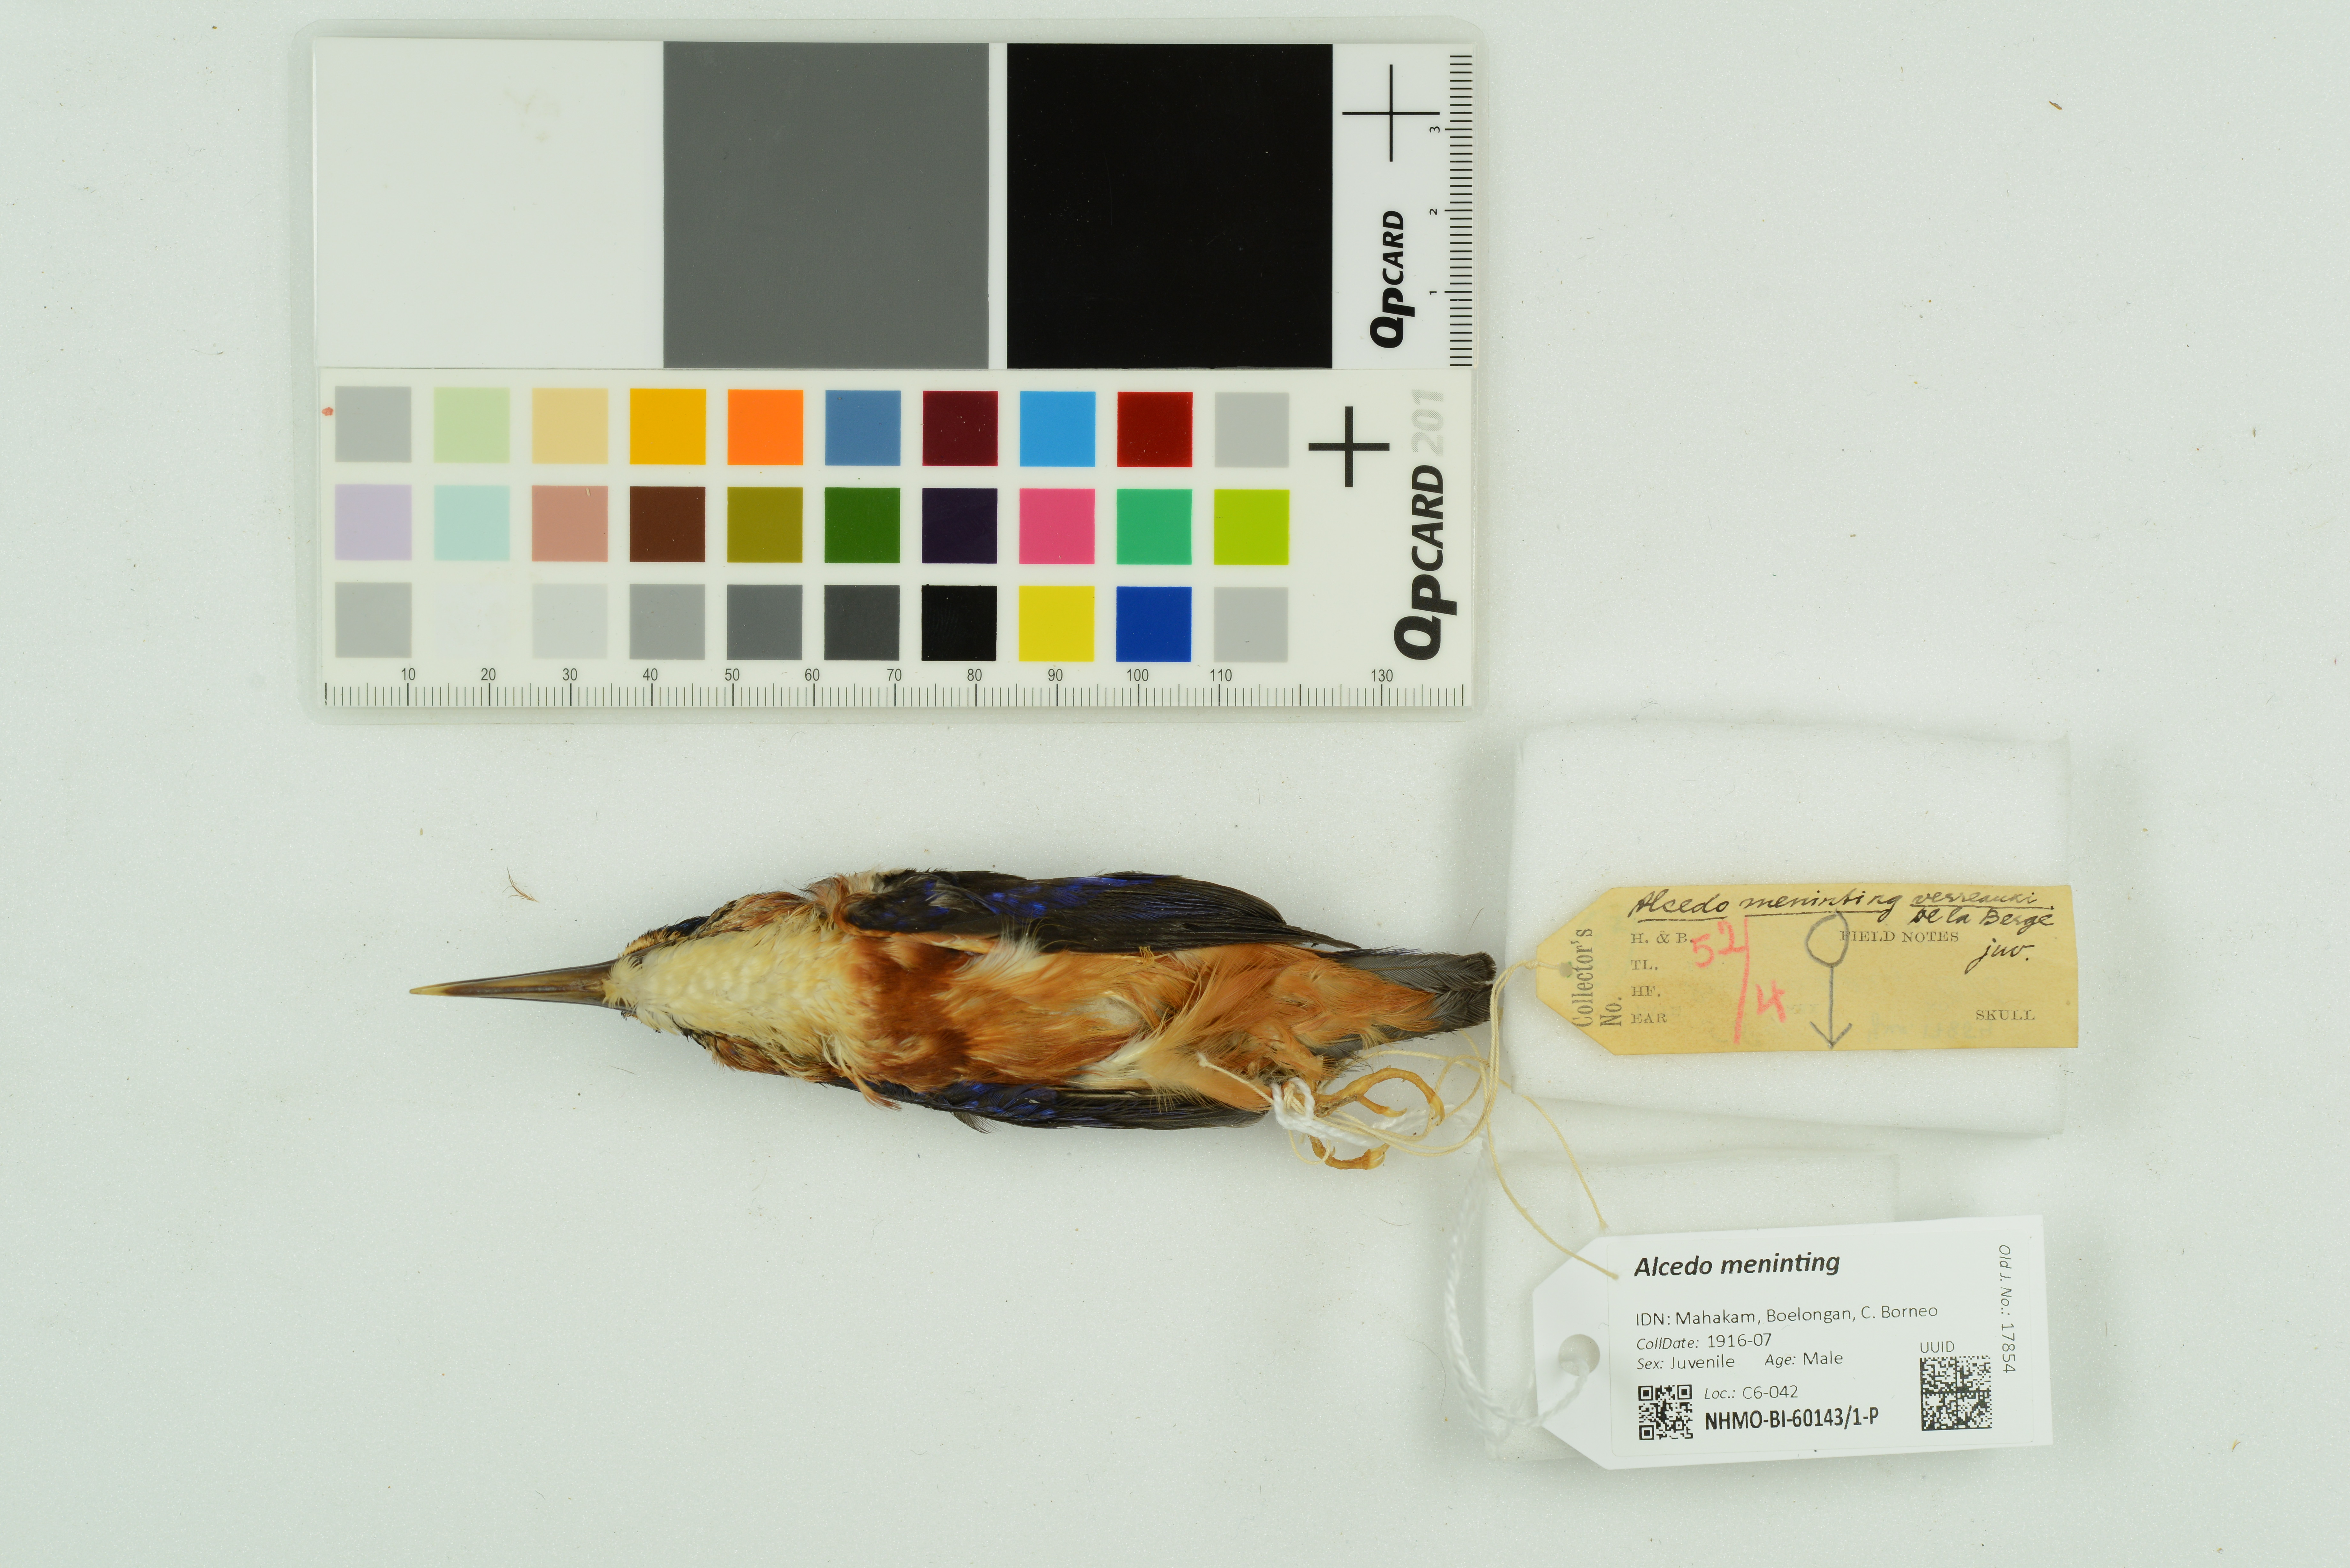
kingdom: Animalia
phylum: Chordata
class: Aves
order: Coraciiformes
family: Alcedinidae
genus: Alcedo
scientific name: Alcedo meninting
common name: Blue-eared kingfisher
